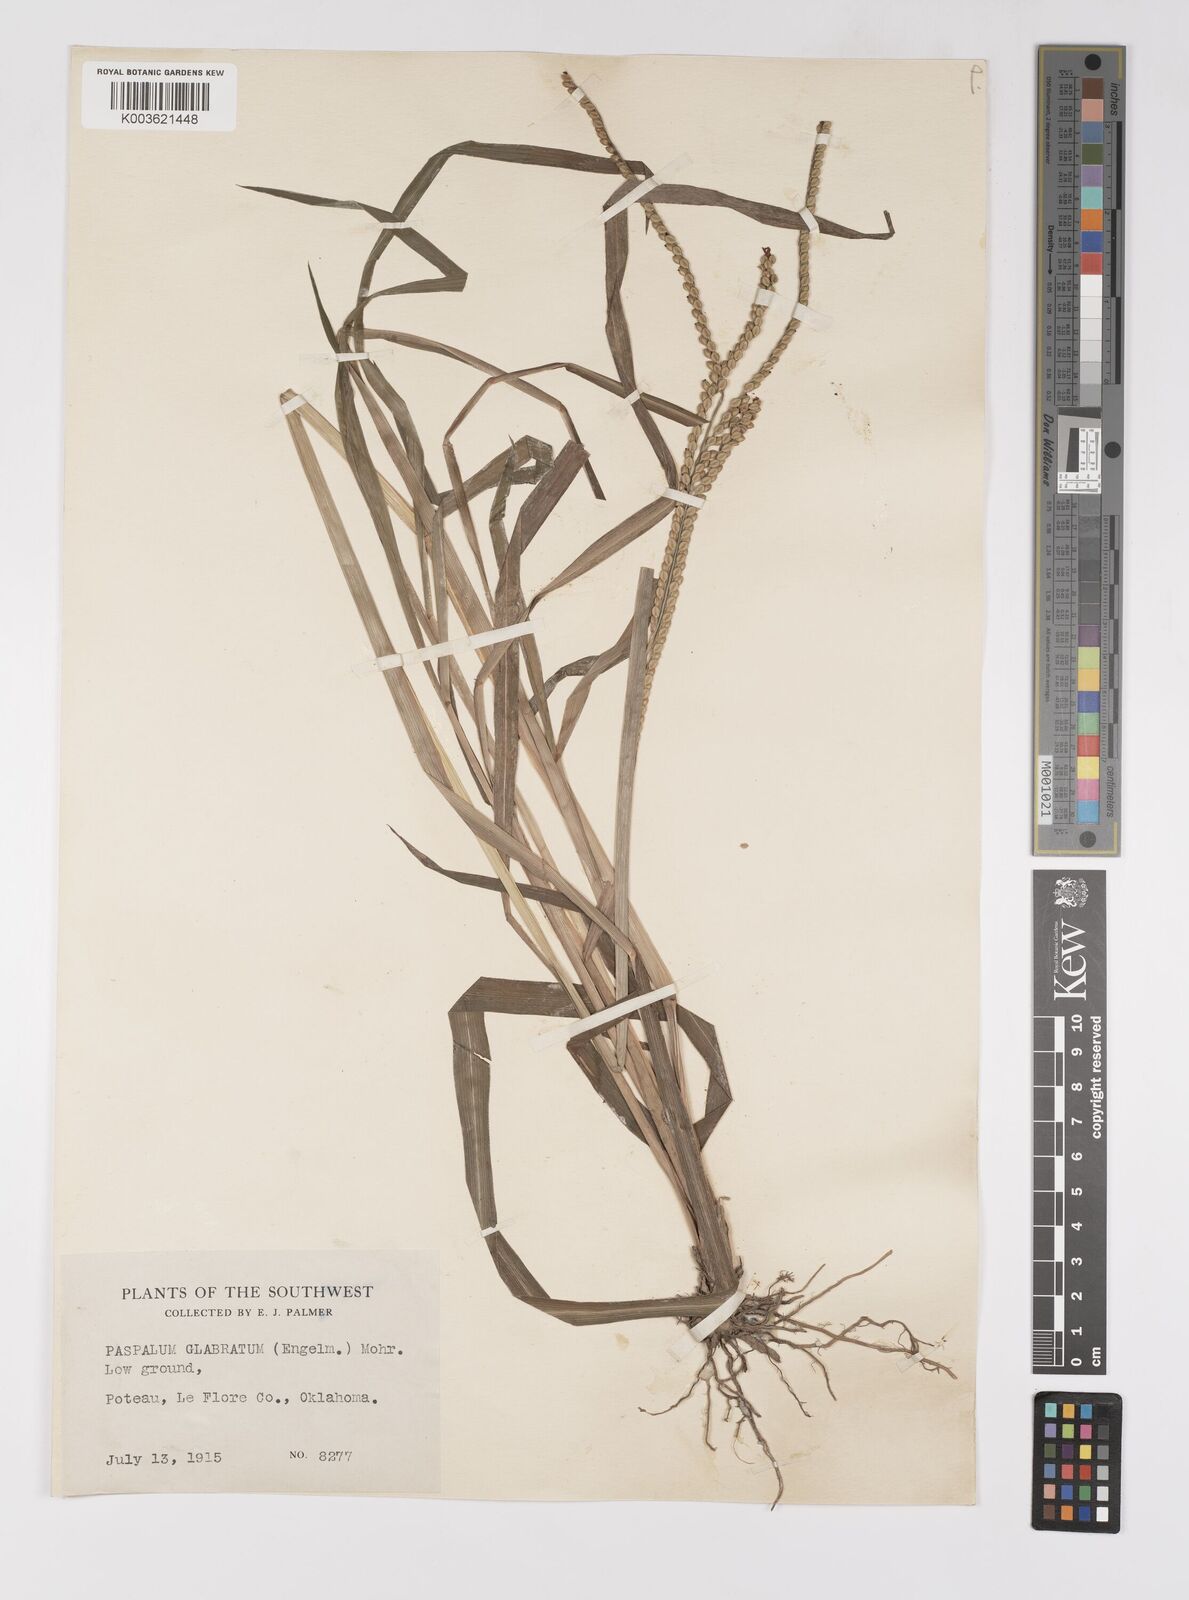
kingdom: Plantae
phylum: Tracheophyta
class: Liliopsida
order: Poales
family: Poaceae
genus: Paspalum
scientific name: Paspalum
